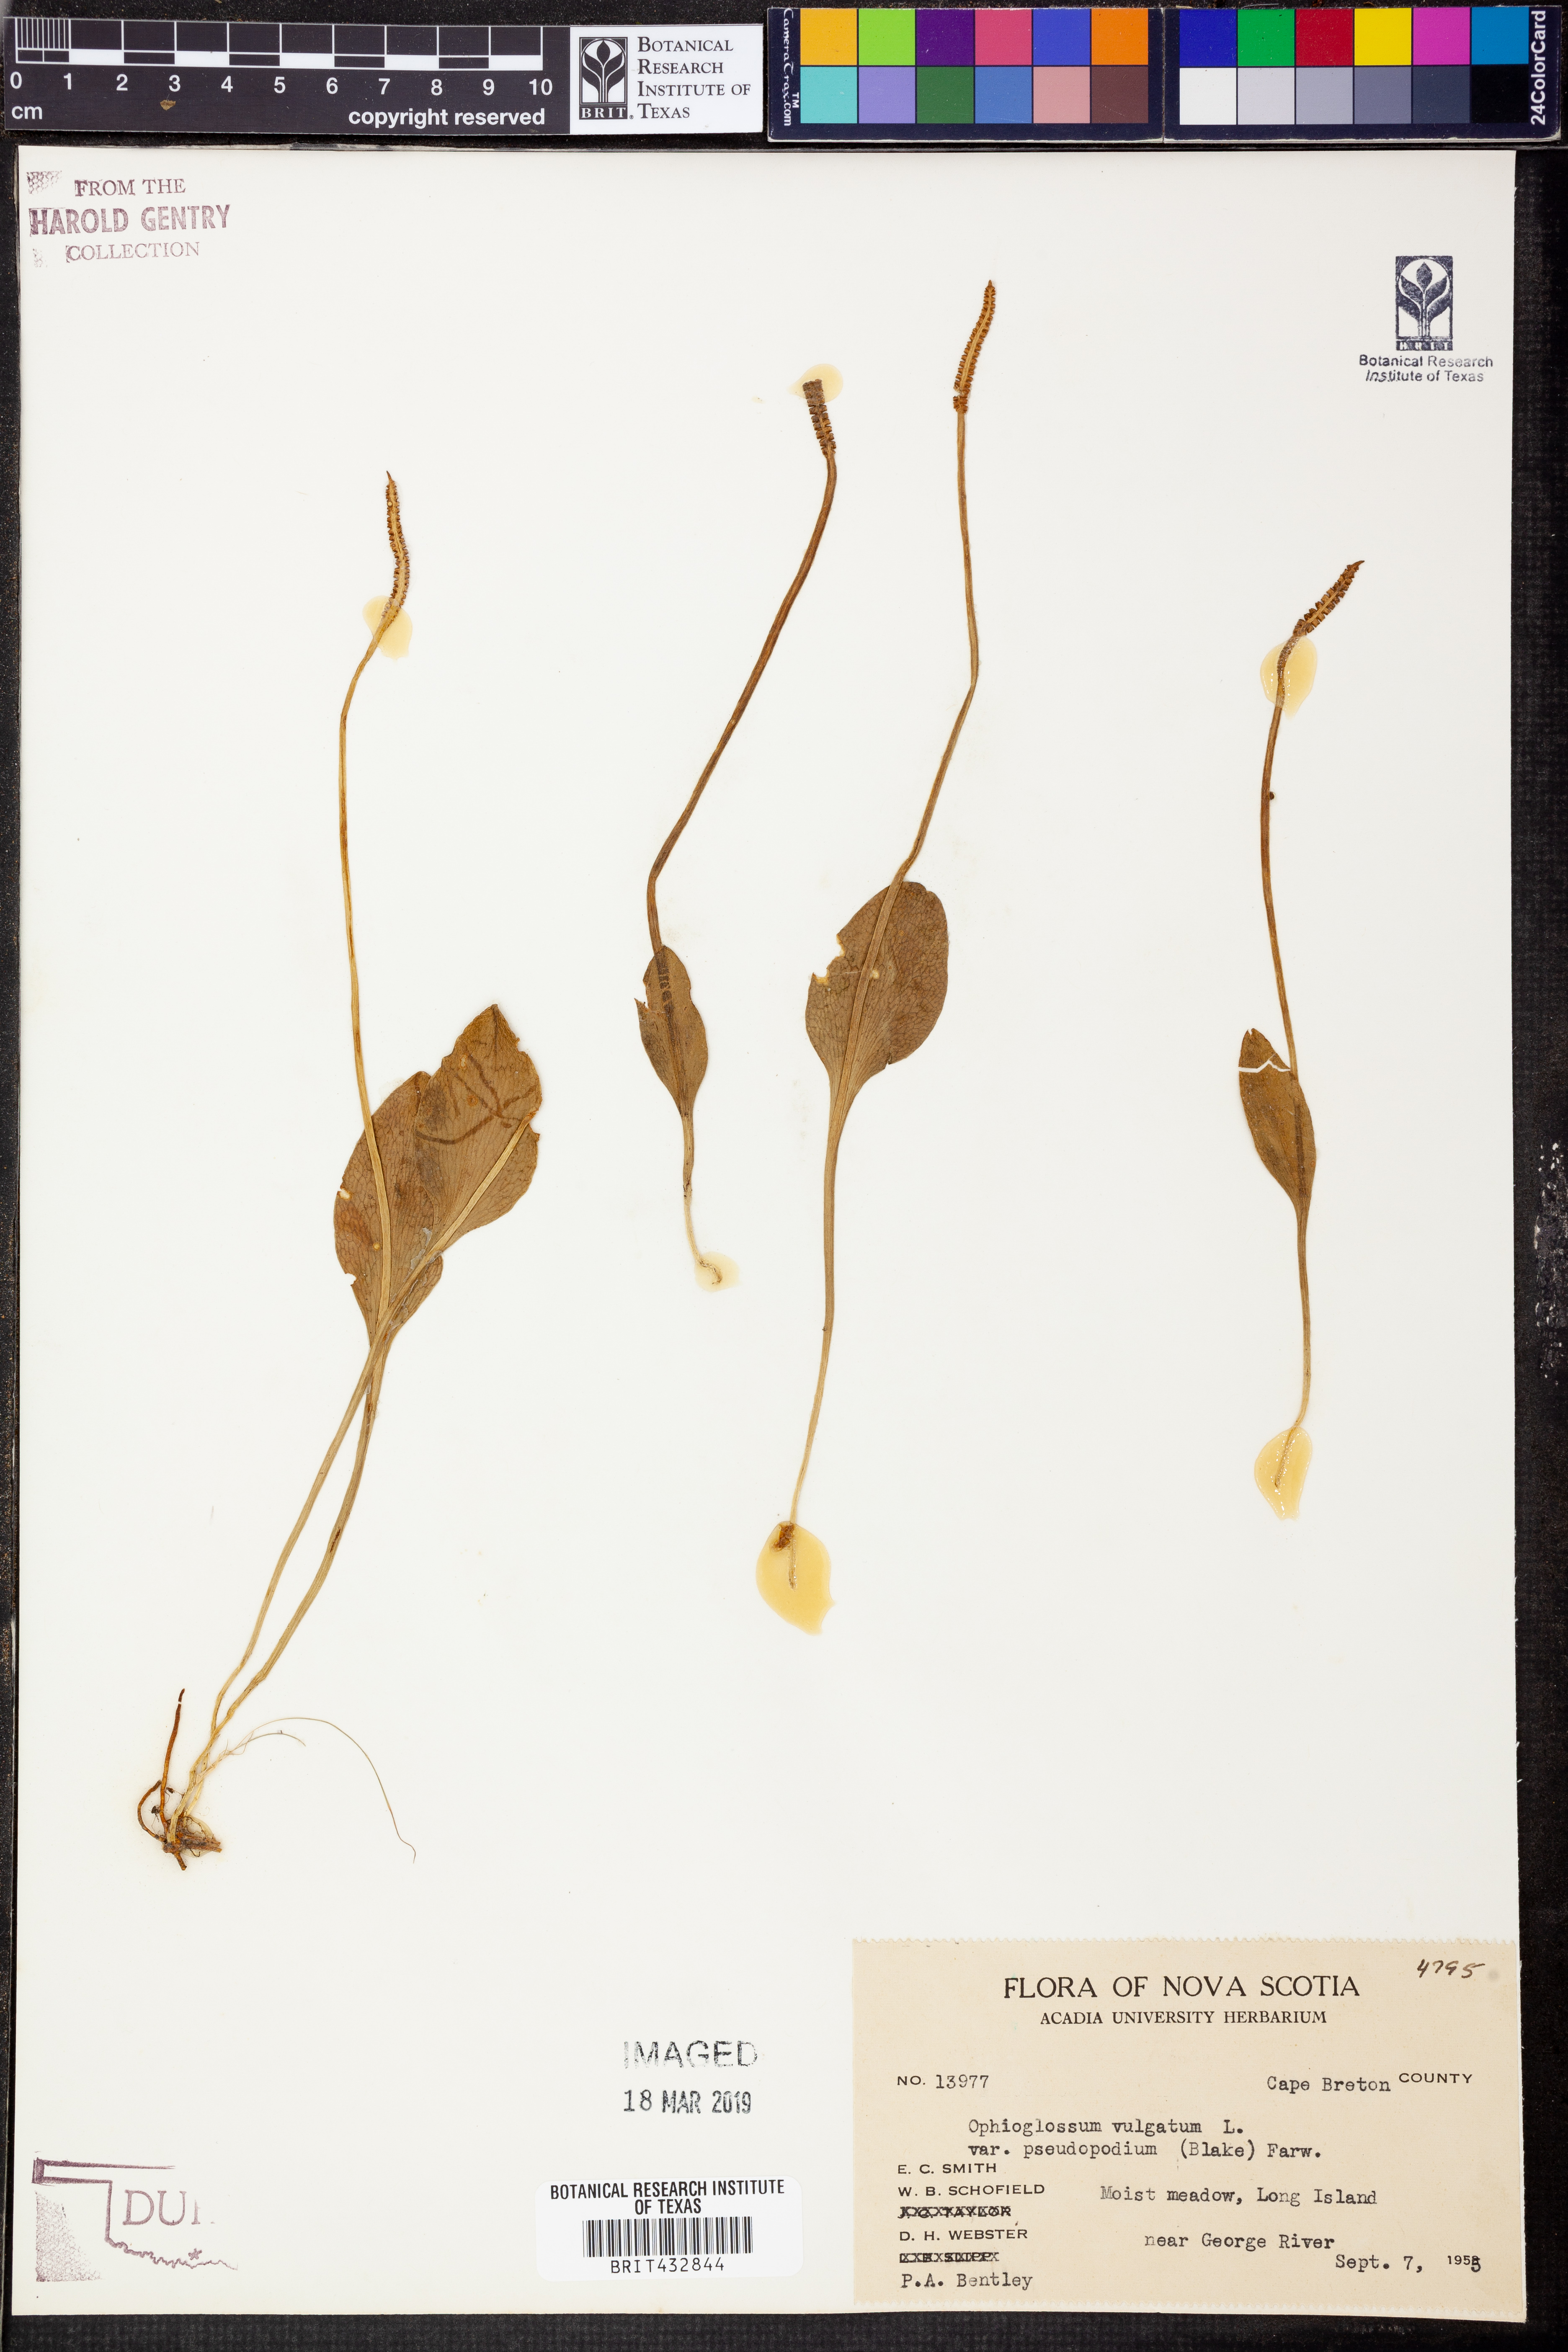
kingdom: Plantae
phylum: Tracheophyta
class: Polypodiopsida
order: Ophioglossales
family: Ophioglossaceae
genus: Ophioglossum
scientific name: Ophioglossum pusillum
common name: Northern adder's-tongue
